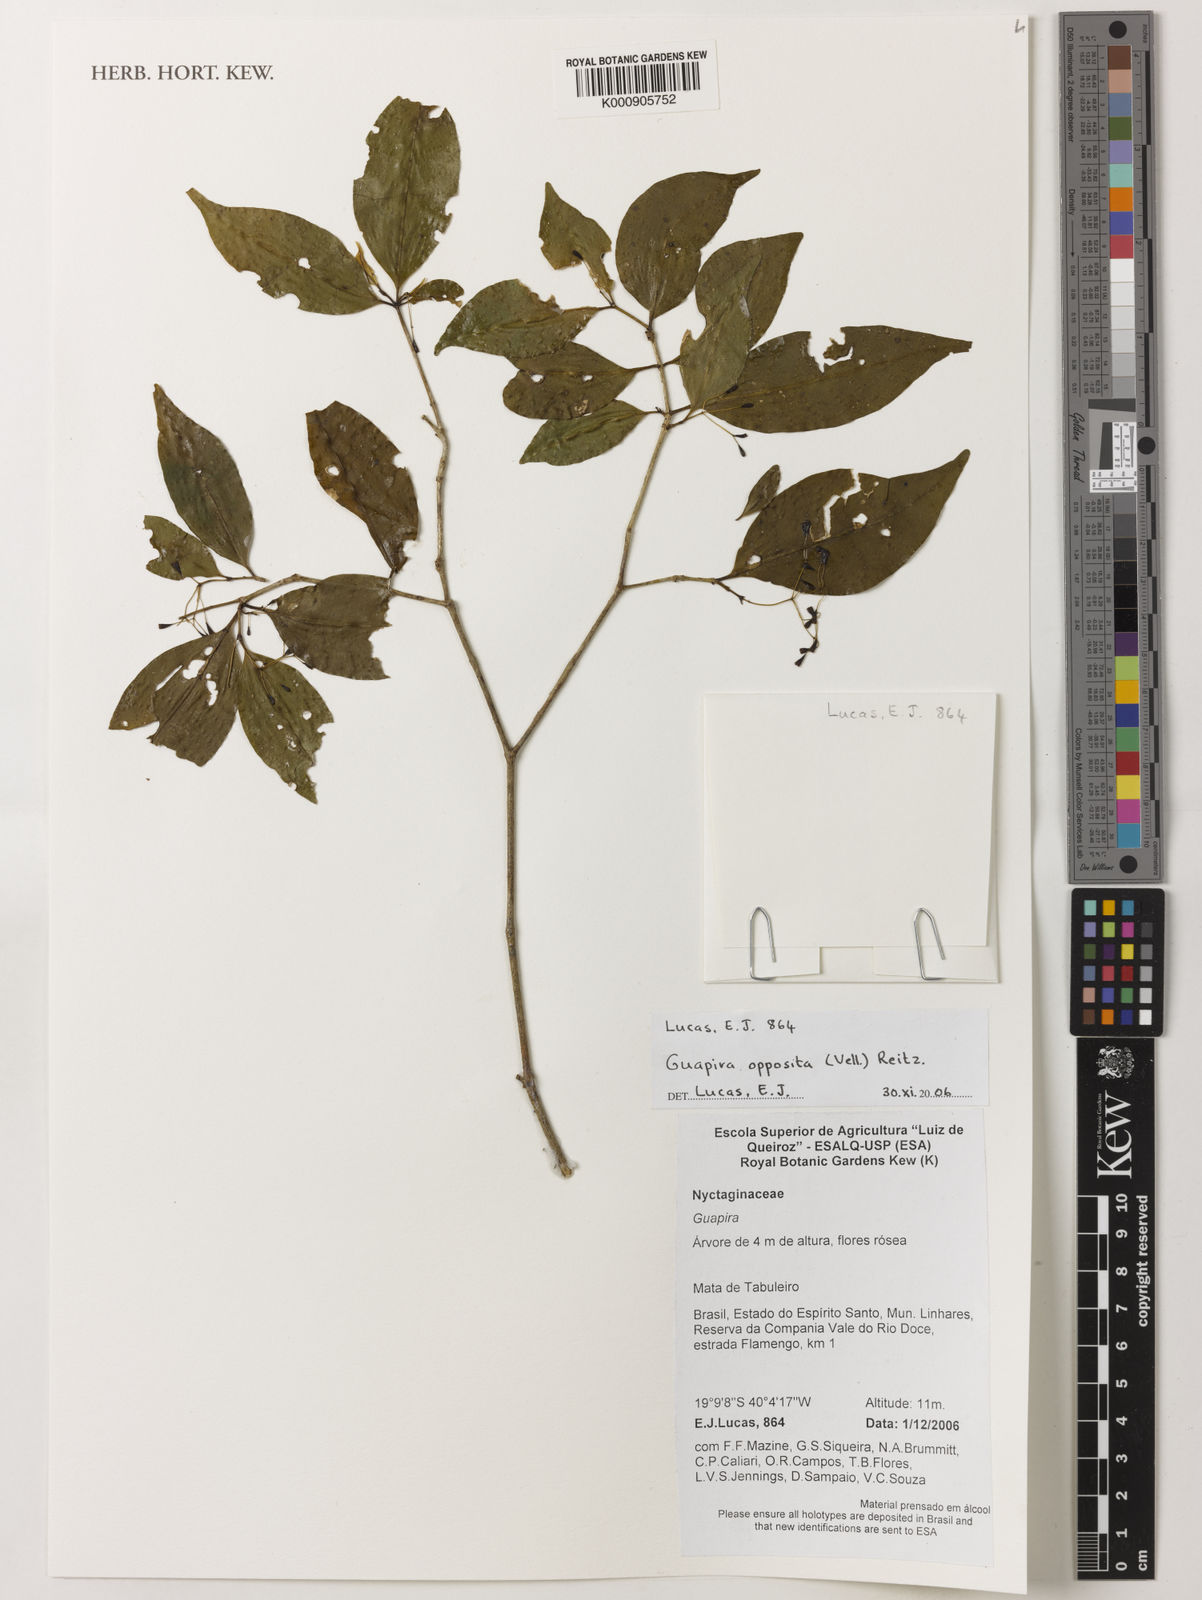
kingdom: Plantae
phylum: Tracheophyta
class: Magnoliopsida
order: Caryophyllales
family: Nyctaginaceae
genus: Guapira
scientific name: Guapira opposita
